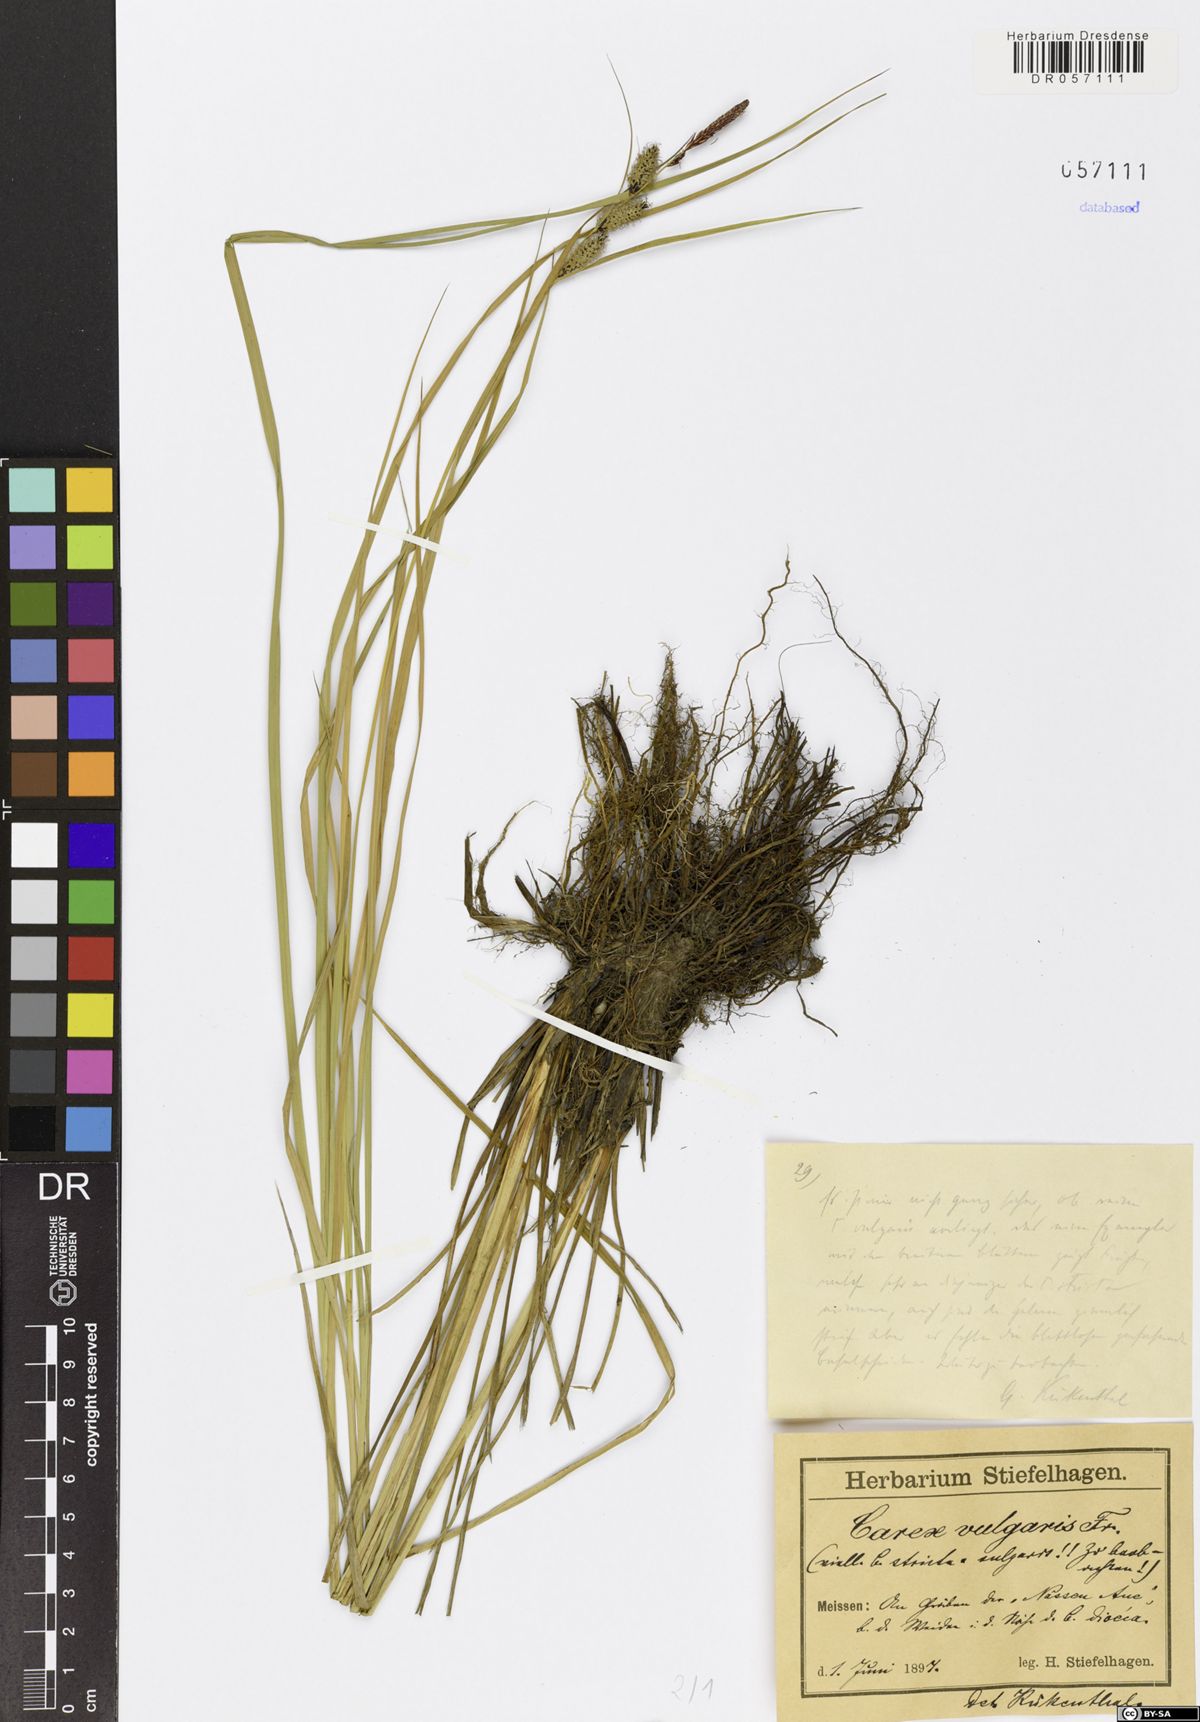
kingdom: Plantae
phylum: Tracheophyta
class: Liliopsida
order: Poales
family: Cyperaceae
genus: Carex
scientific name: Carex nigra
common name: Common sedge
